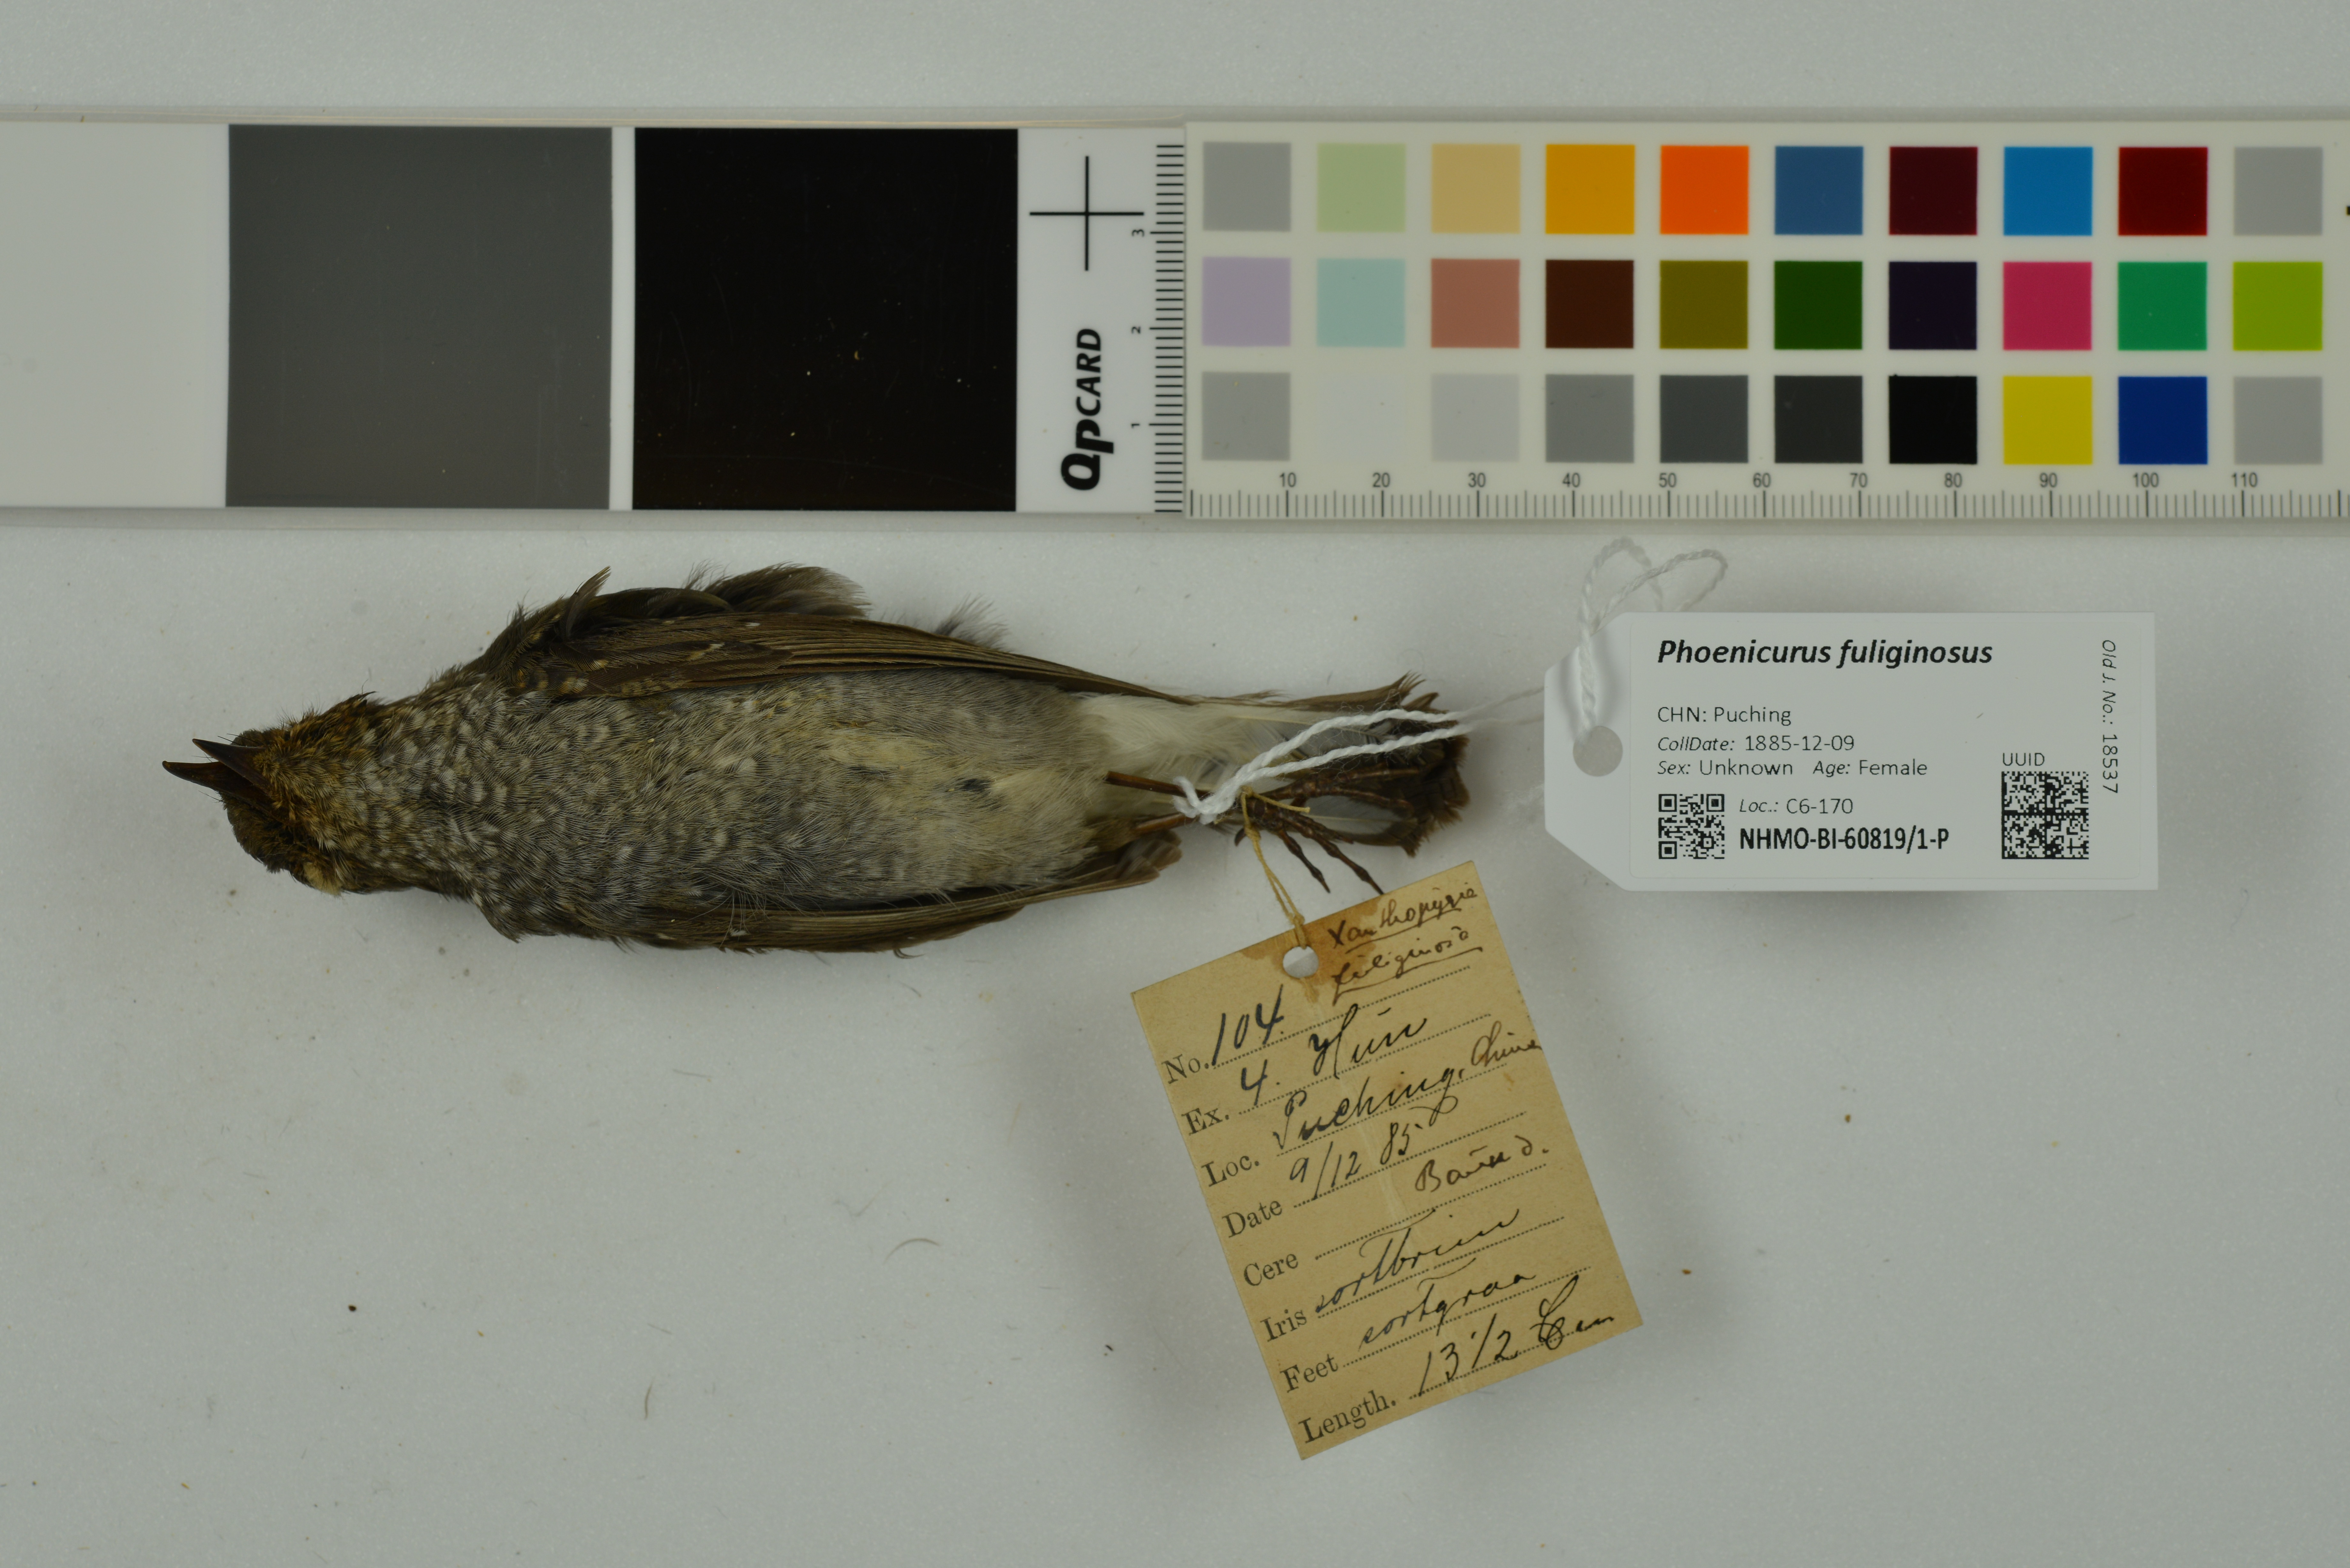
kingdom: Animalia
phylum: Chordata
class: Aves
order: Passeriformes
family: Muscicapidae
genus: Phoenicurus
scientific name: Phoenicurus fuliginosus
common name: Plumbeous water redstart
